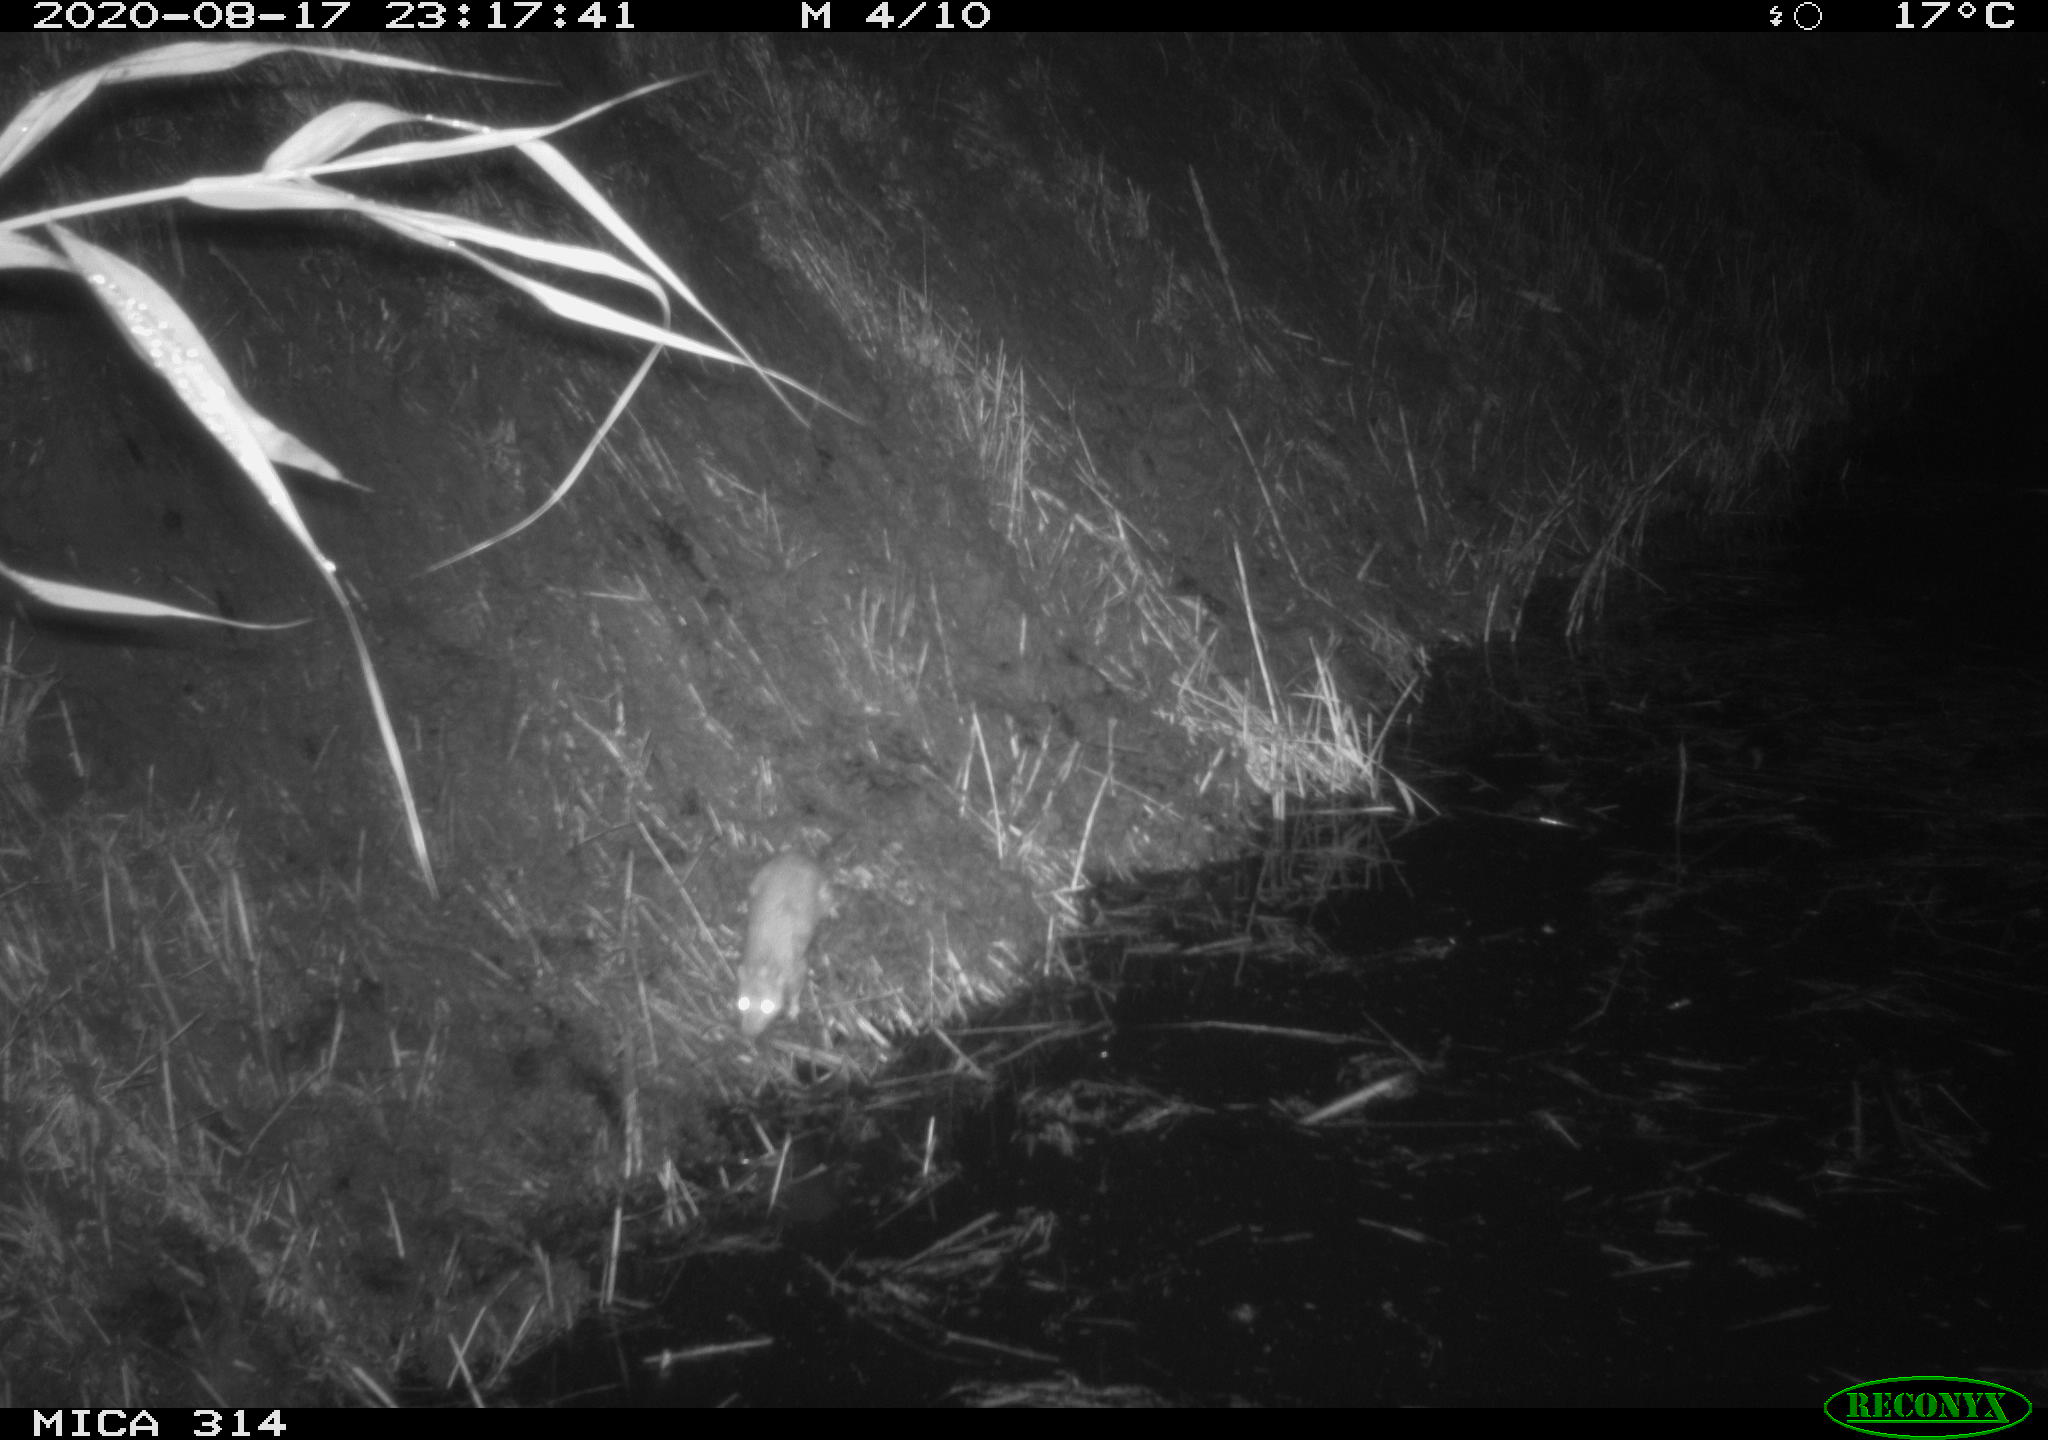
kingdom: Animalia
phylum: Chordata
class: Mammalia
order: Rodentia
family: Muridae
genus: Rattus
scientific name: Rattus norvegicus
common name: Brown rat
